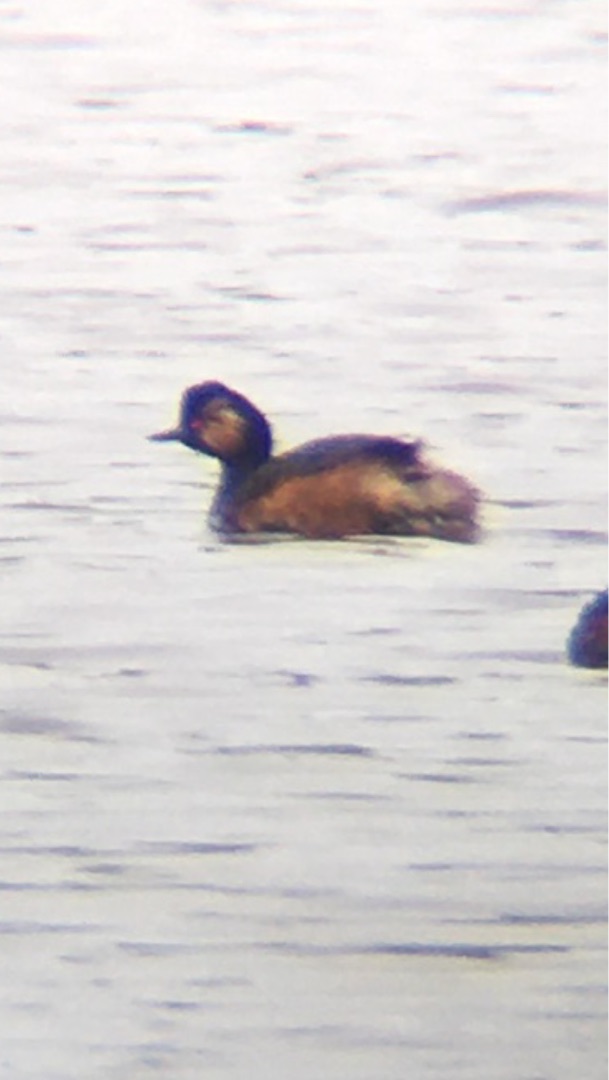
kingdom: Animalia
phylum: Chordata
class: Aves
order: Podicipediformes
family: Podicipedidae
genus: Podiceps
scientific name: Podiceps nigricollis
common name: Sorthalset lappedykker
